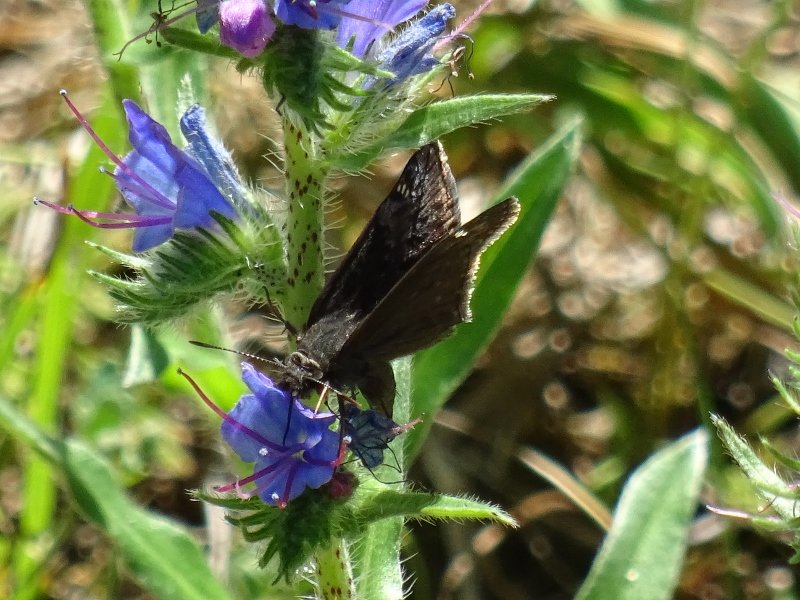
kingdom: Animalia
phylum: Arthropoda
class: Insecta
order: Lepidoptera
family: Hesperiidae
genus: Gesta
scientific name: Gesta
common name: Wild Indigo Duskywing
